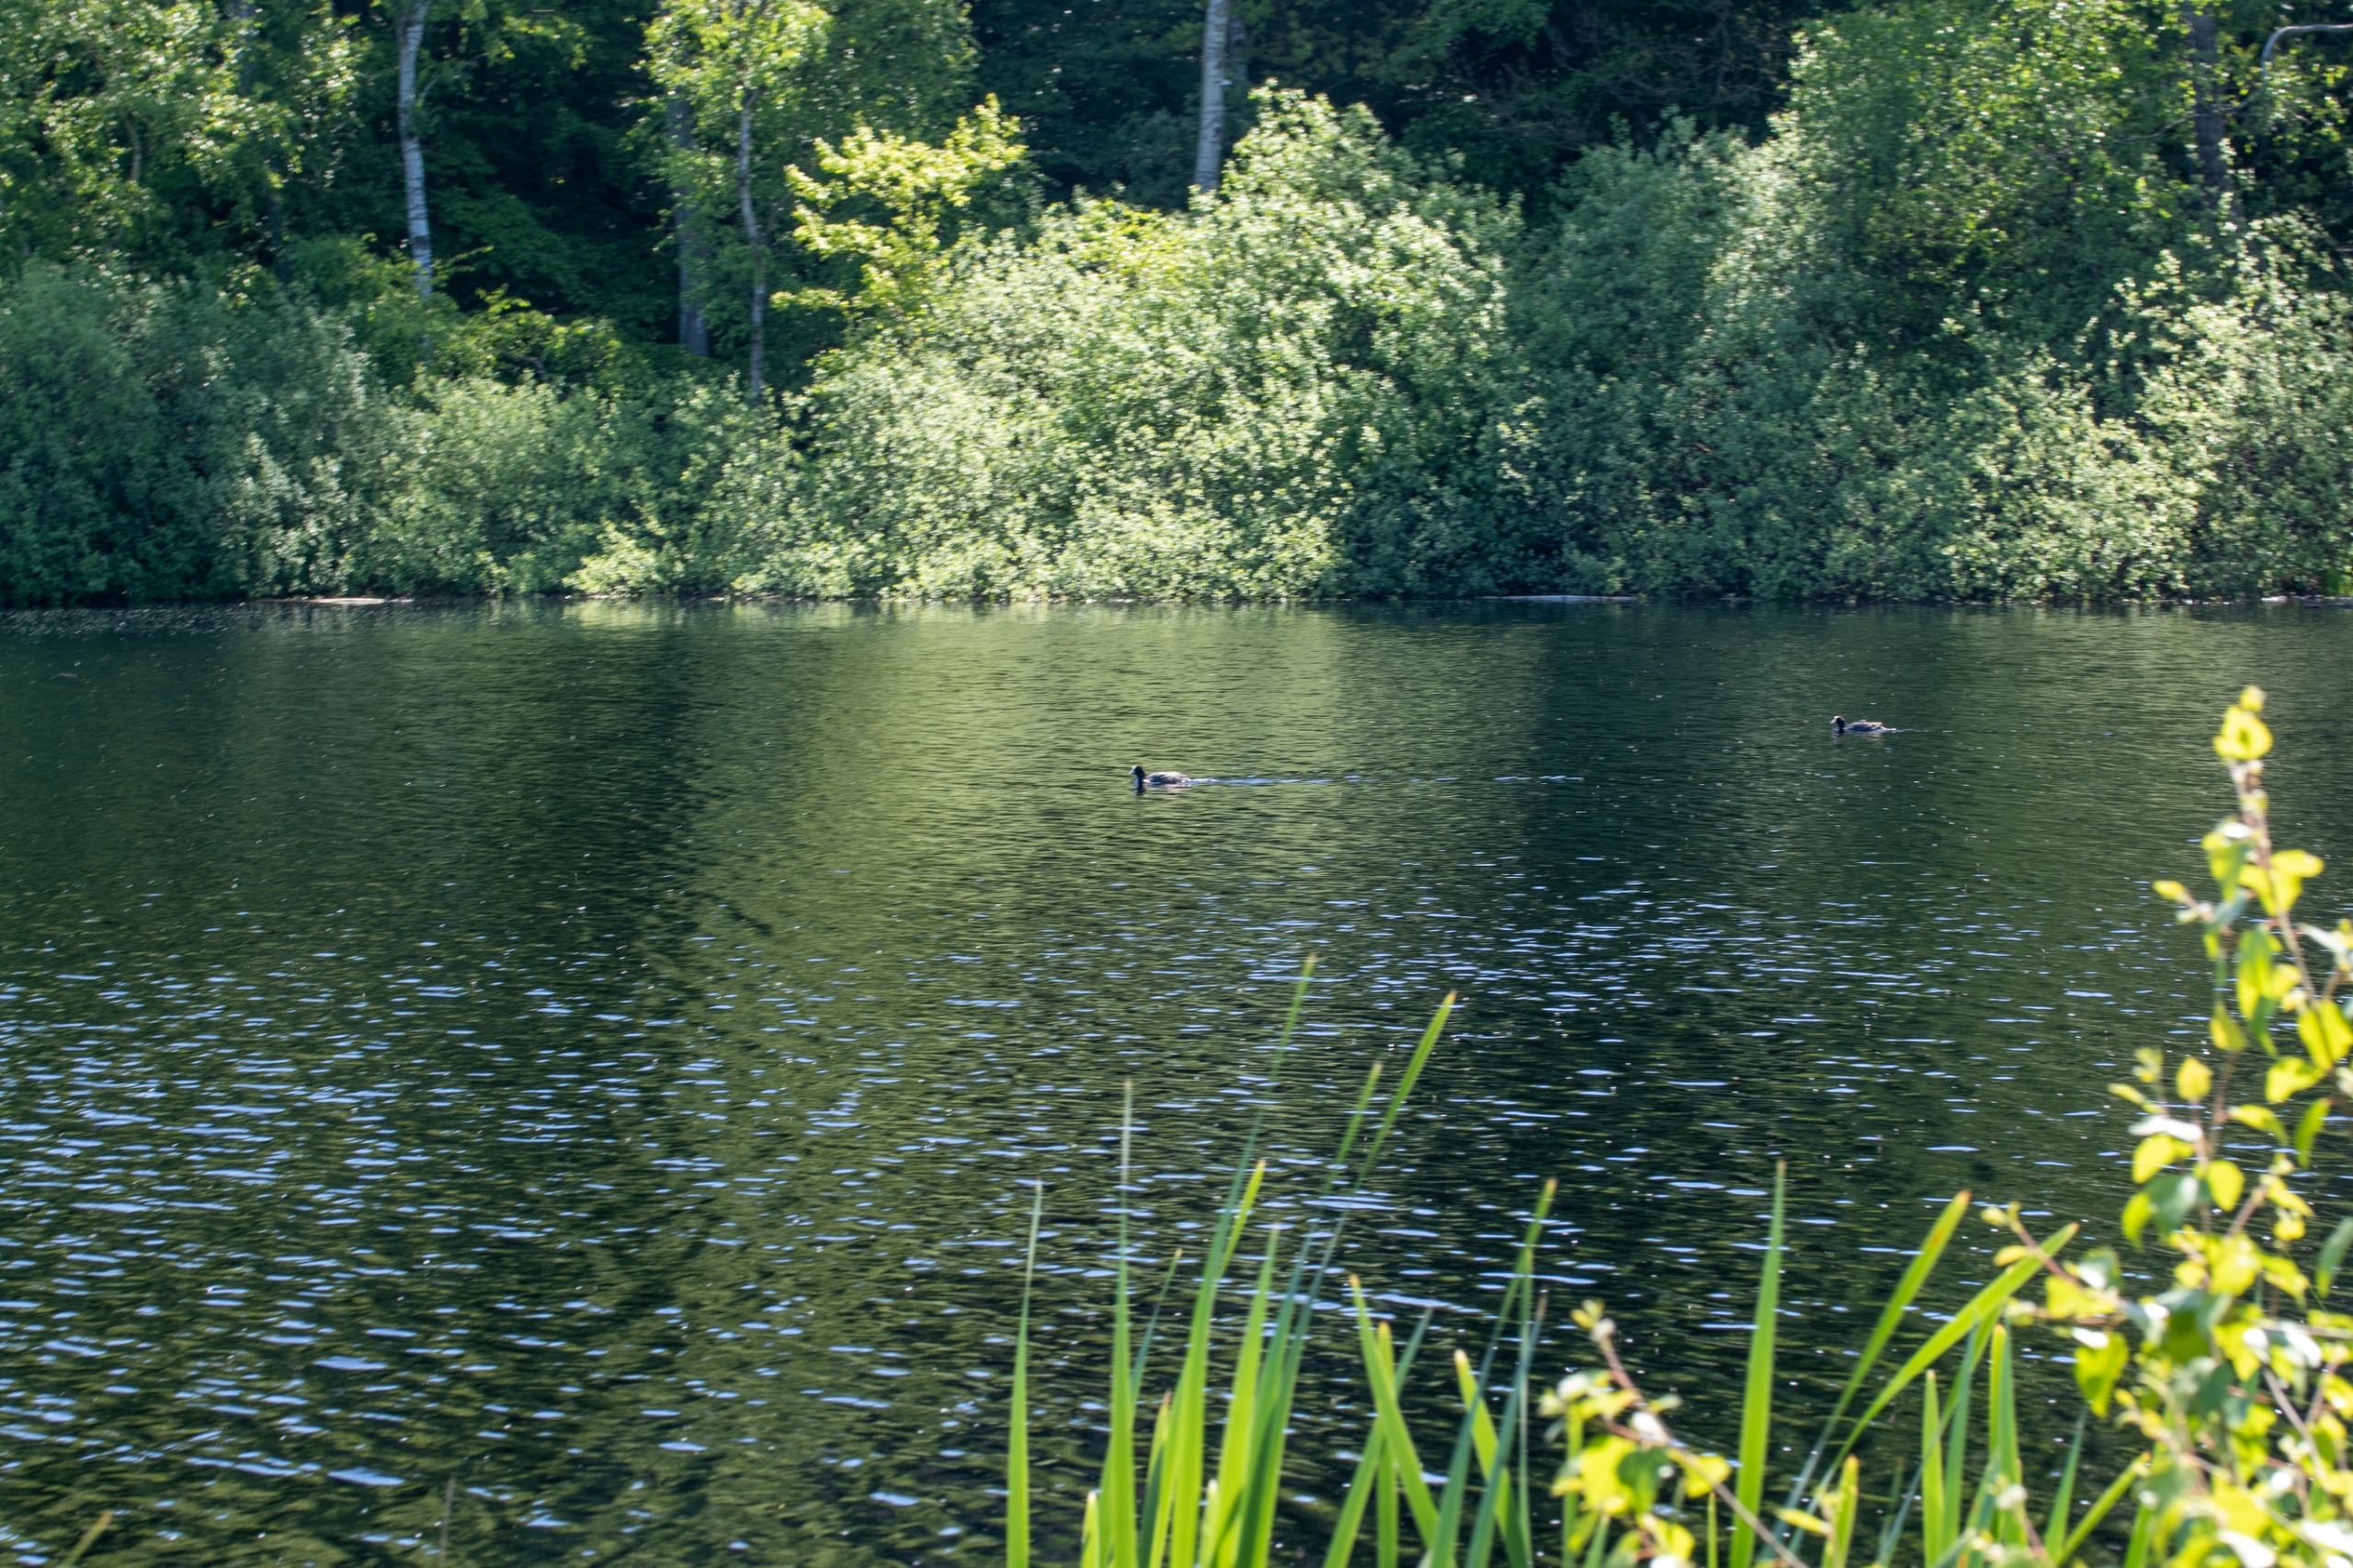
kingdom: Animalia
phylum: Chordata
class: Aves
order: Gruiformes
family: Rallidae
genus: Fulica
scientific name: Fulica atra
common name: Blishøne
